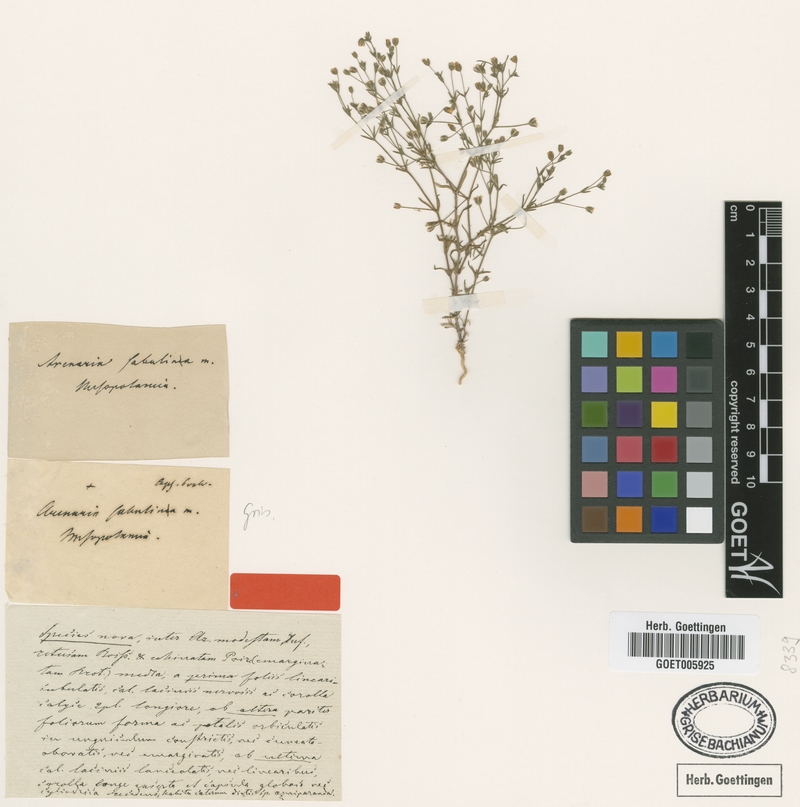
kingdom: Plantae
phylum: Tracheophyta
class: Magnoliopsida
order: Caryophyllales
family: Caryophyllaceae
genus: Arenaria
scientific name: Arenaria sabulinea
